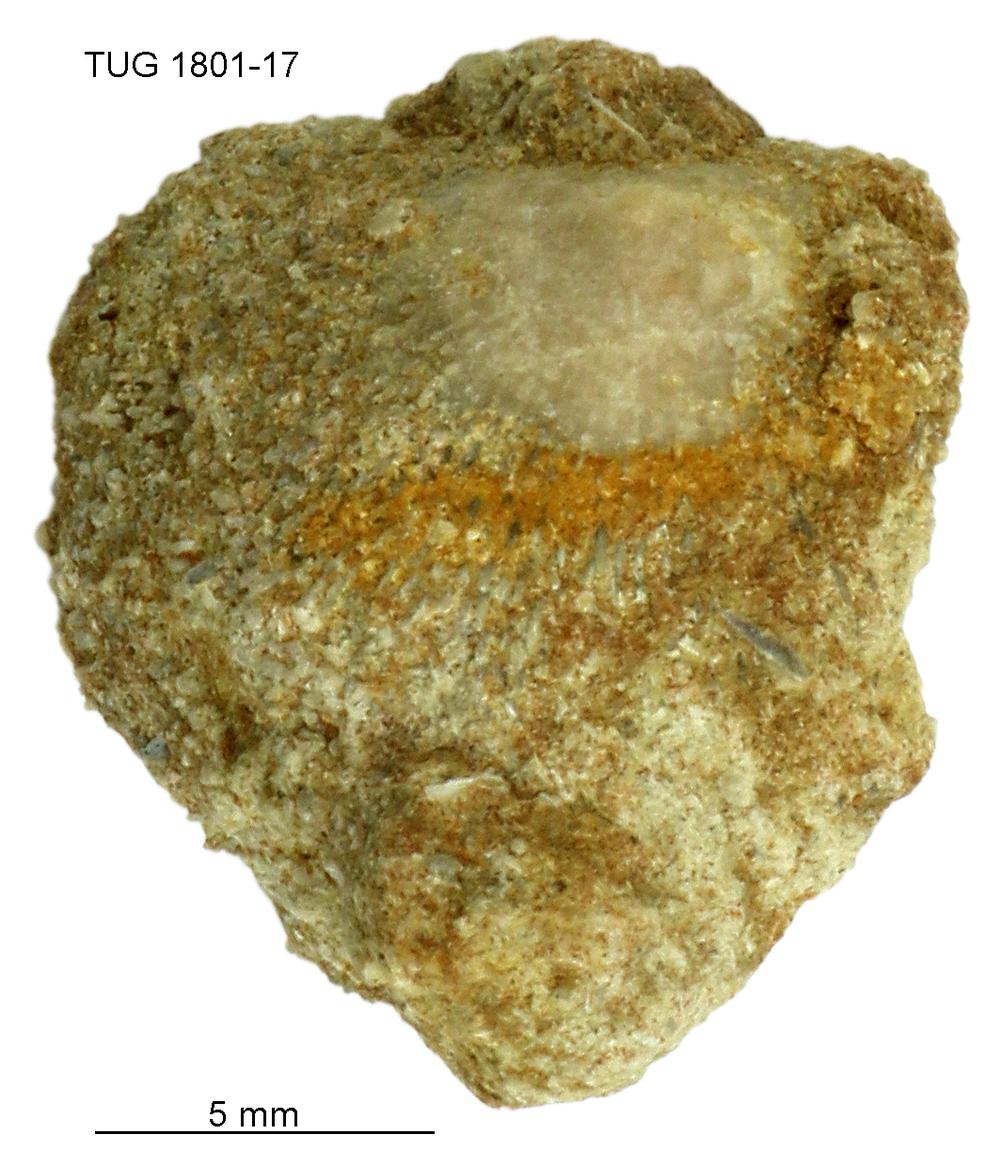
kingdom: Animalia
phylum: Brachiopoda
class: Craniata
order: Craniida
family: Craniidae
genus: Philhedra
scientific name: Philhedra
